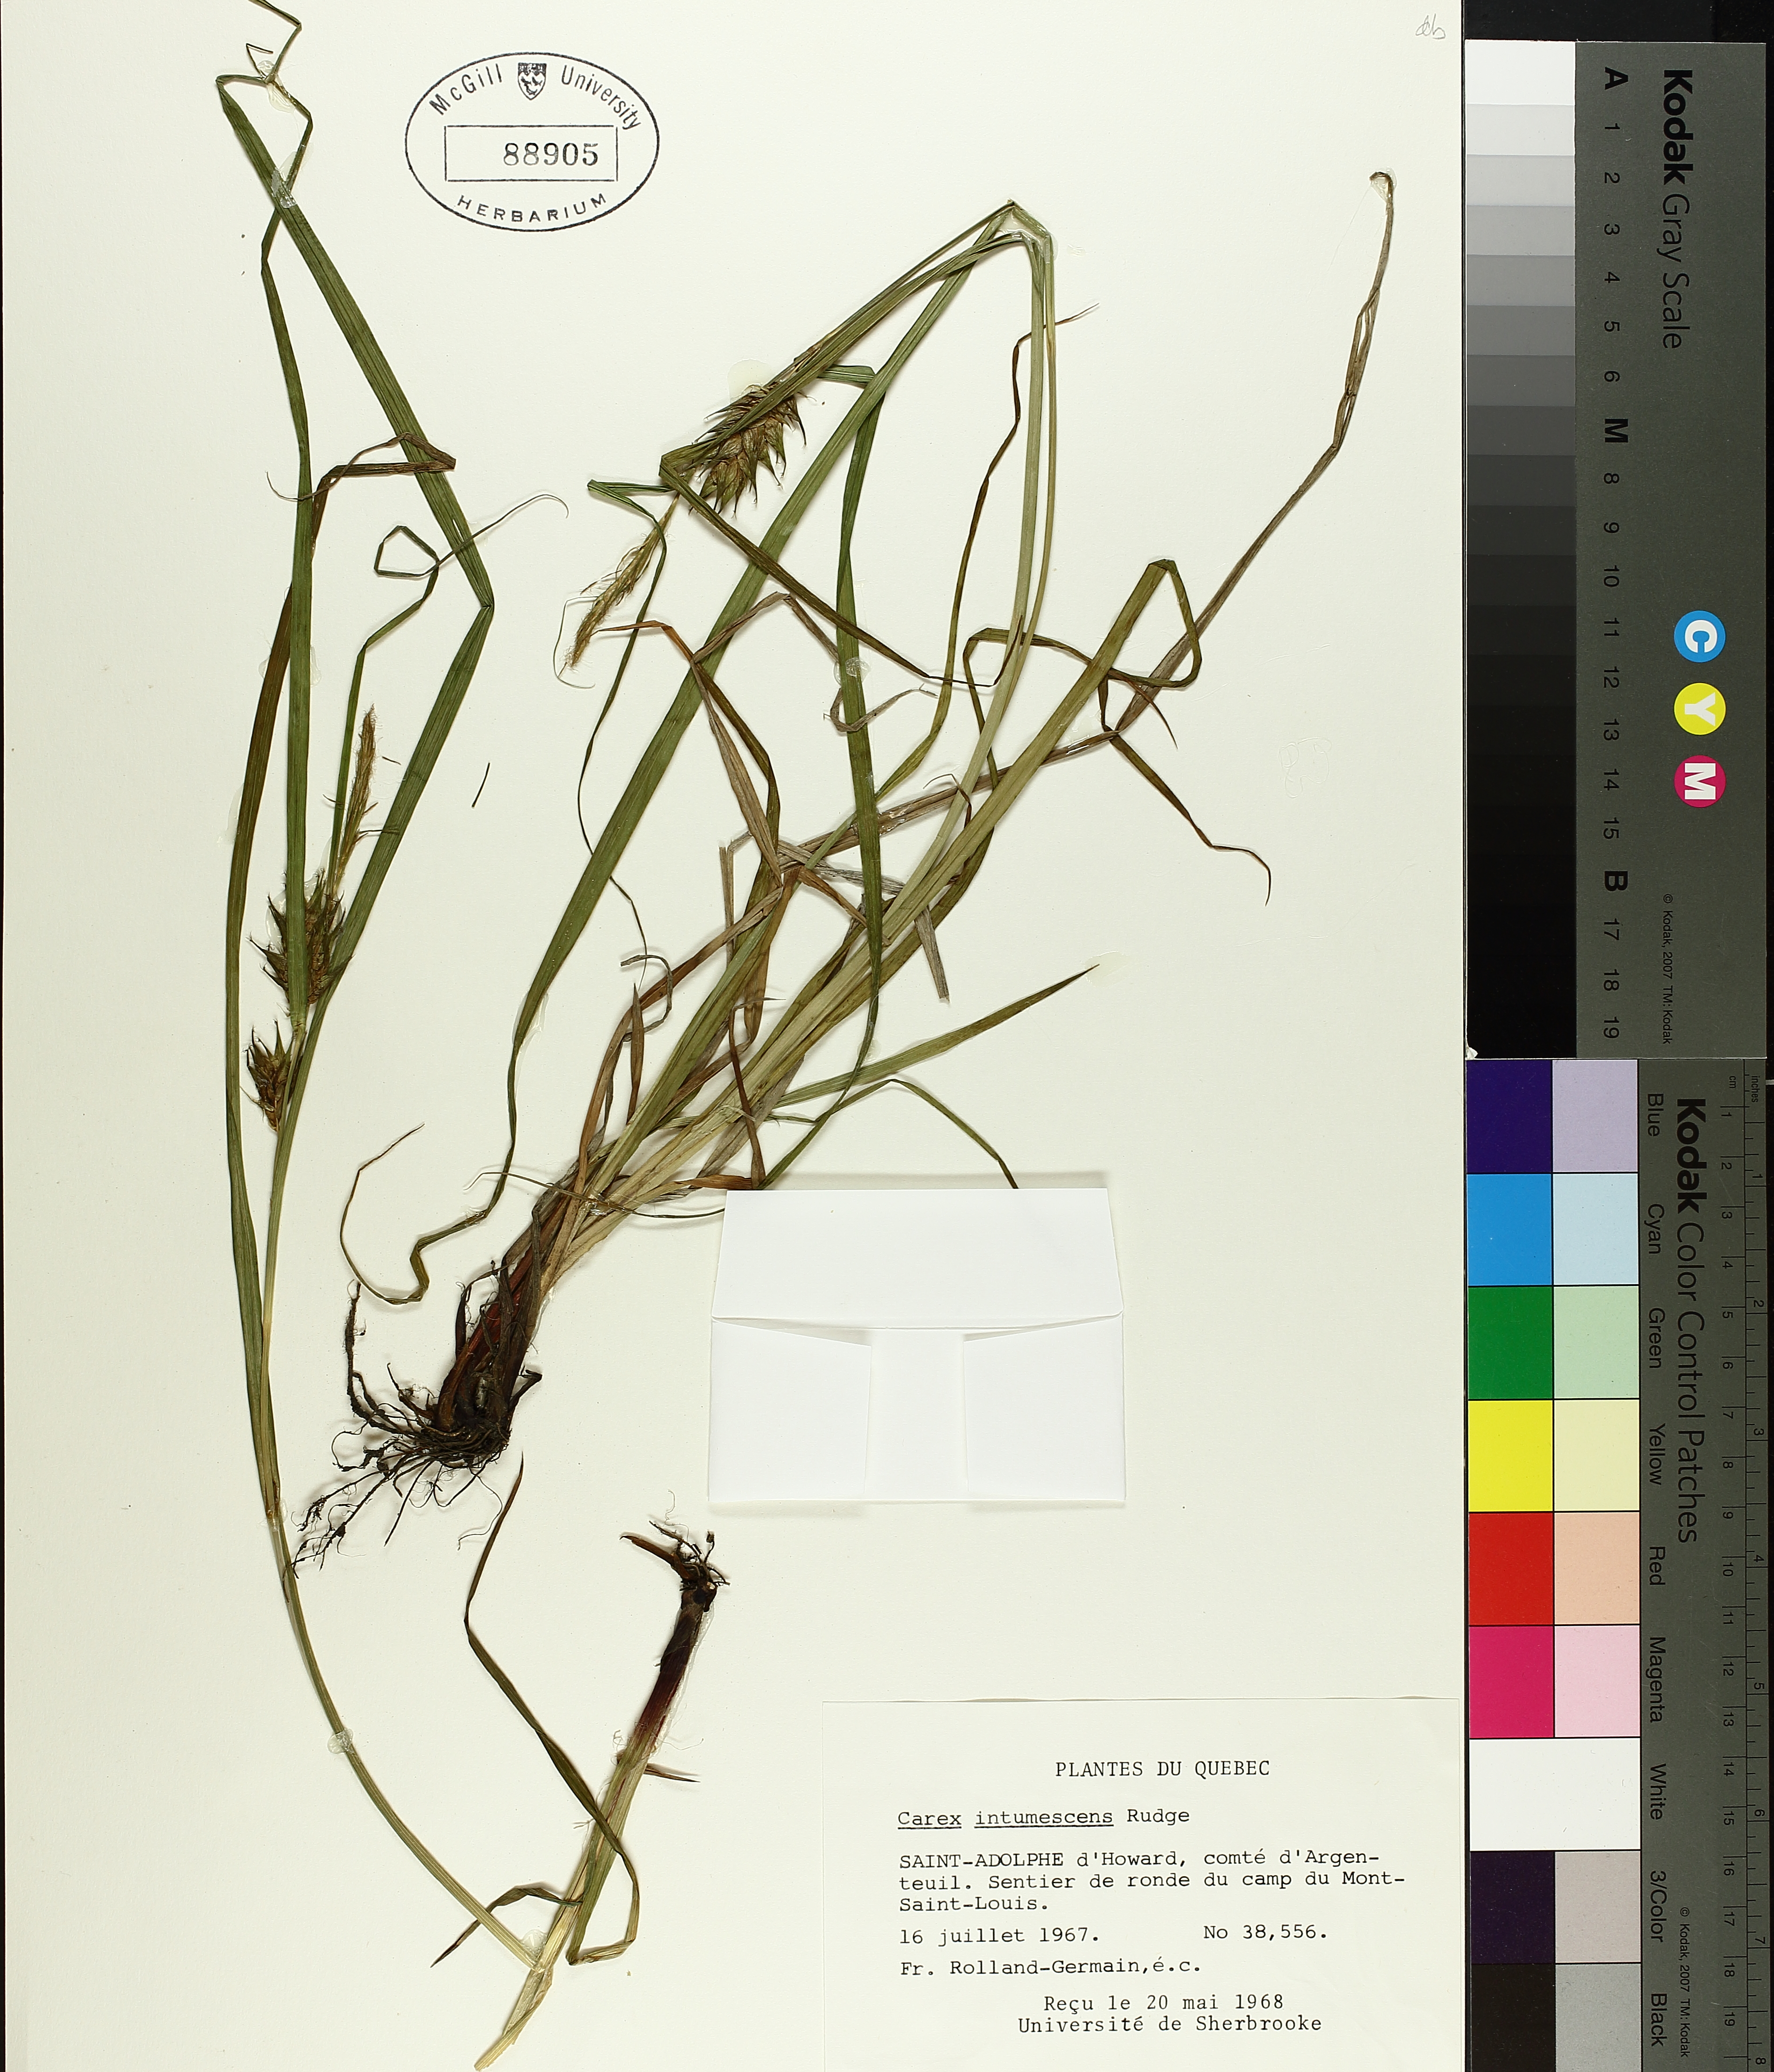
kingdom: Plantae
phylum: Tracheophyta
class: Liliopsida
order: Poales
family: Cyperaceae
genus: Carex
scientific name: Carex intumescens
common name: Greater bladder sedge
